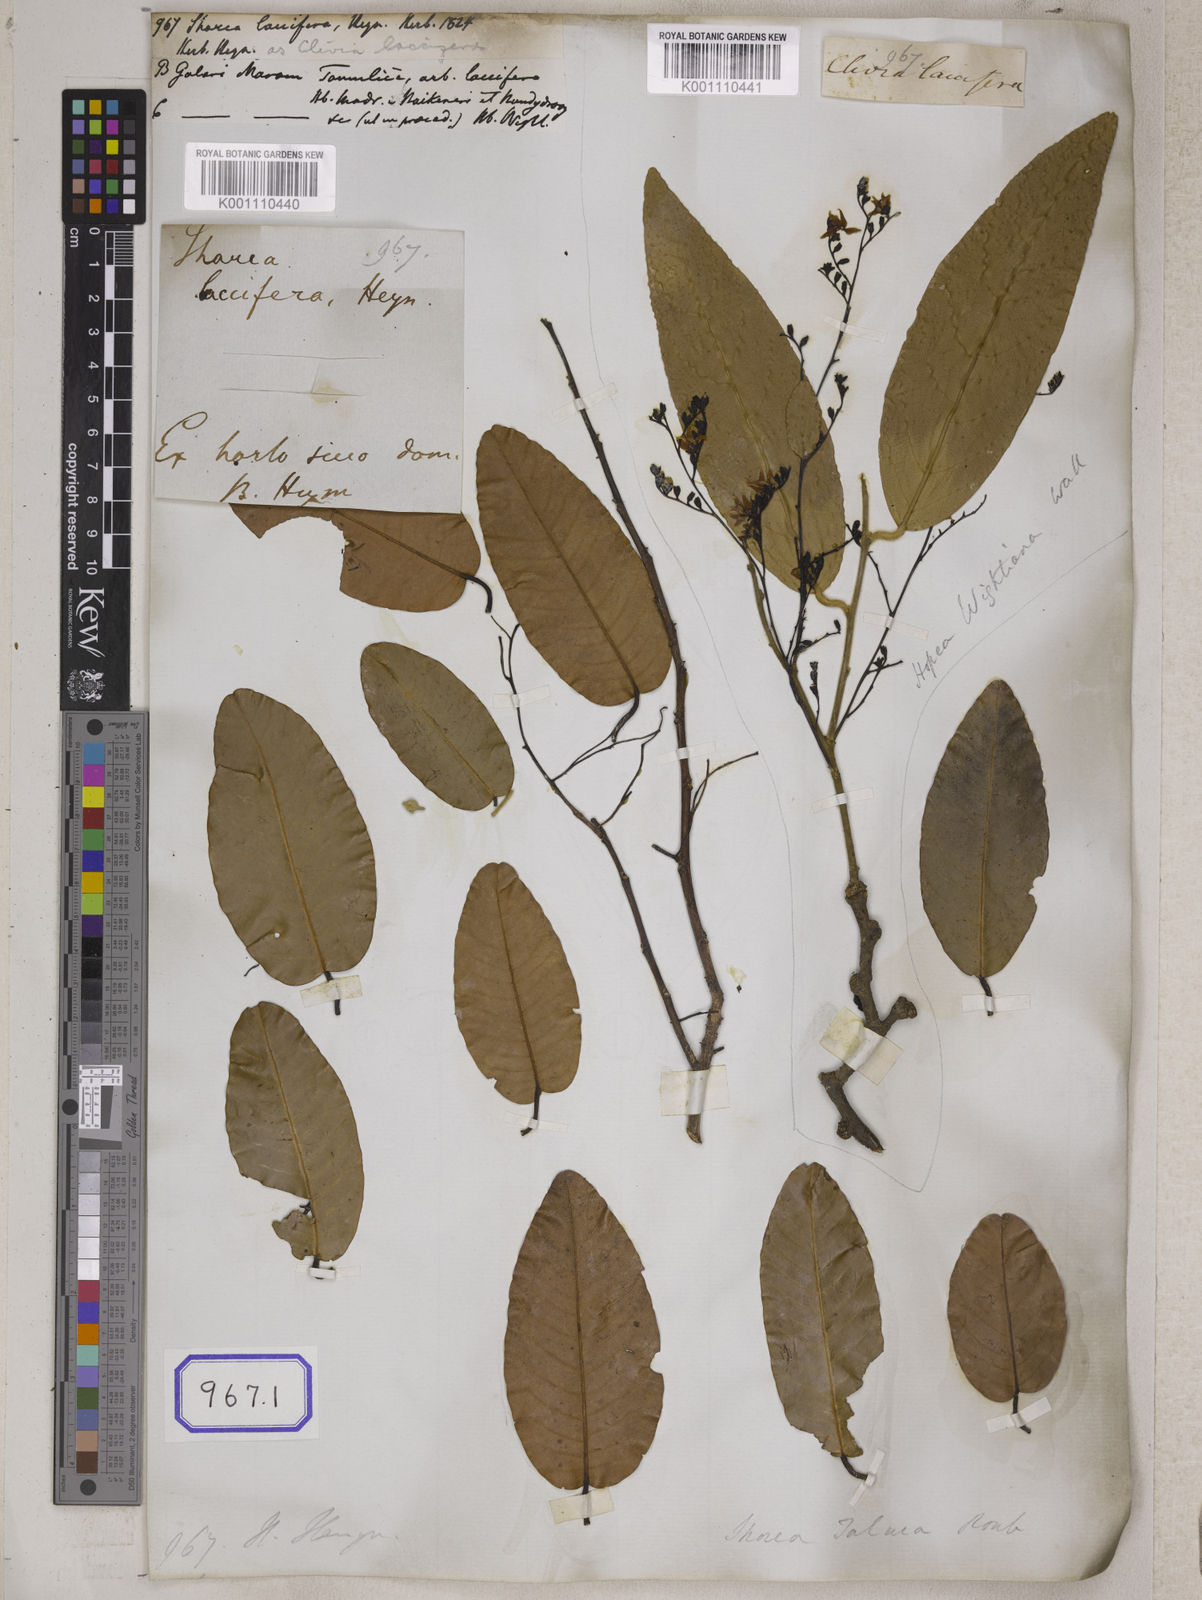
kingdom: Plantae
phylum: Tracheophyta
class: Magnoliopsida
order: Malvales
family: Dipterocarpaceae
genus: Shorea
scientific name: Shorea
